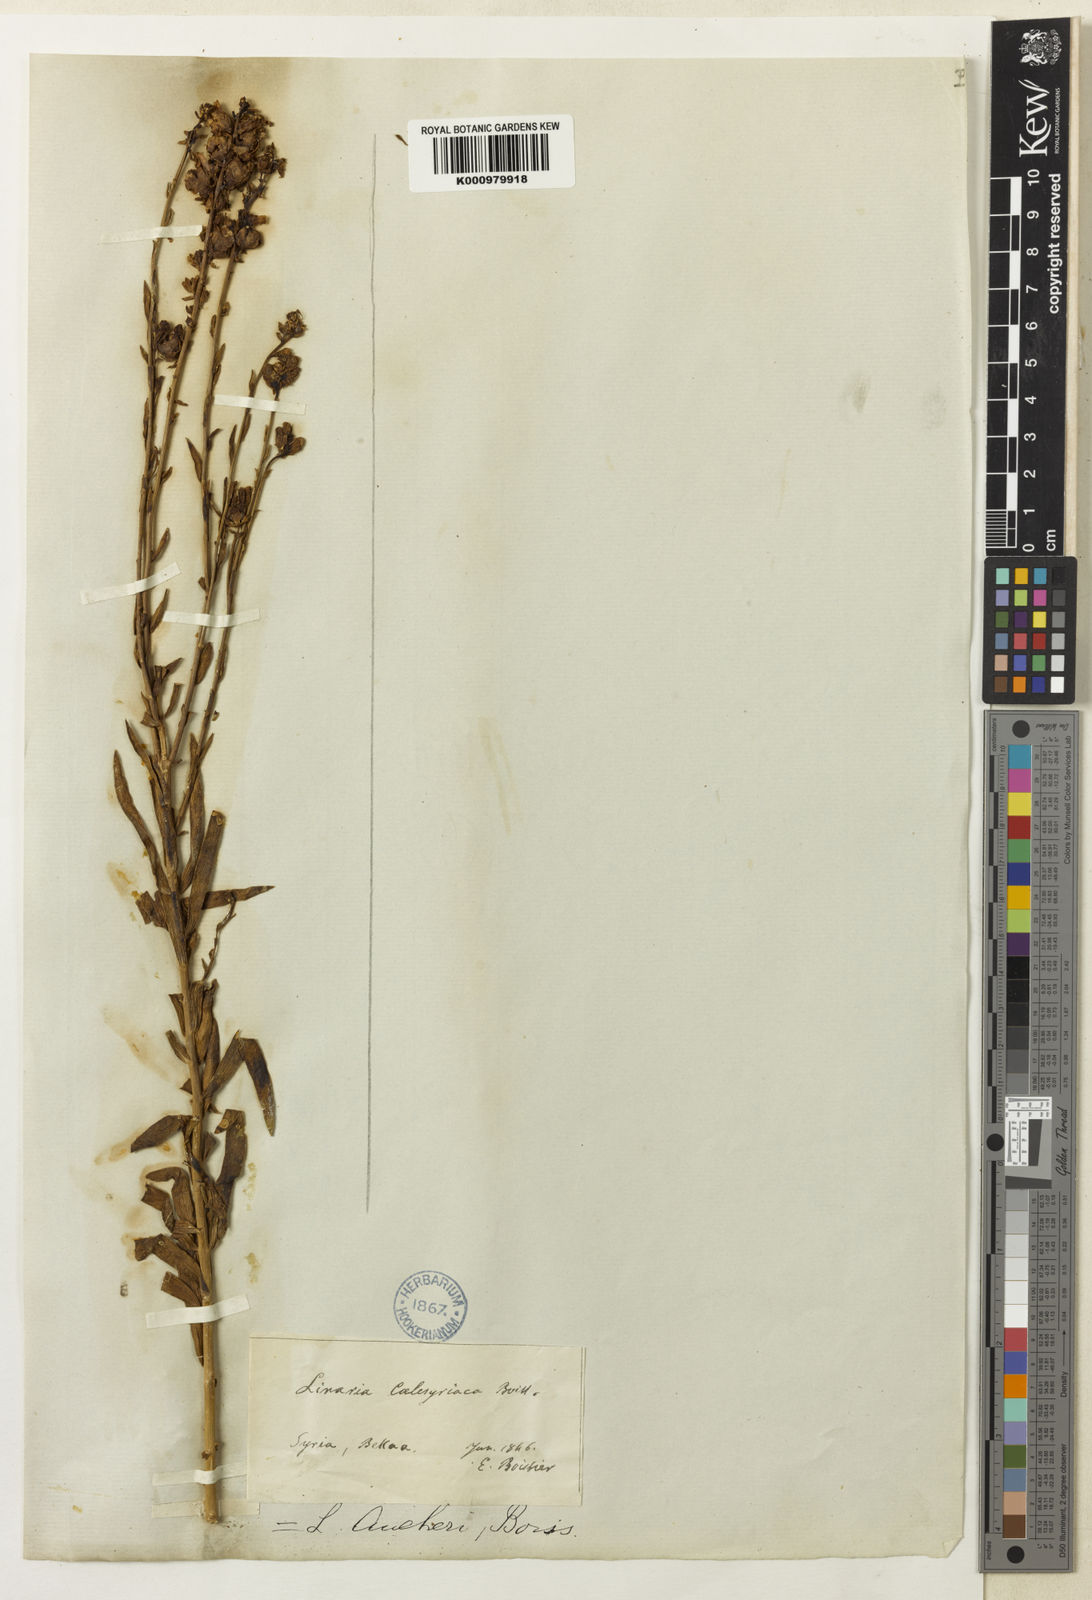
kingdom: Plantae
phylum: Tracheophyta
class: Magnoliopsida
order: Lamiales
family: Plantaginaceae
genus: Linaria
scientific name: Linaria kurdica
